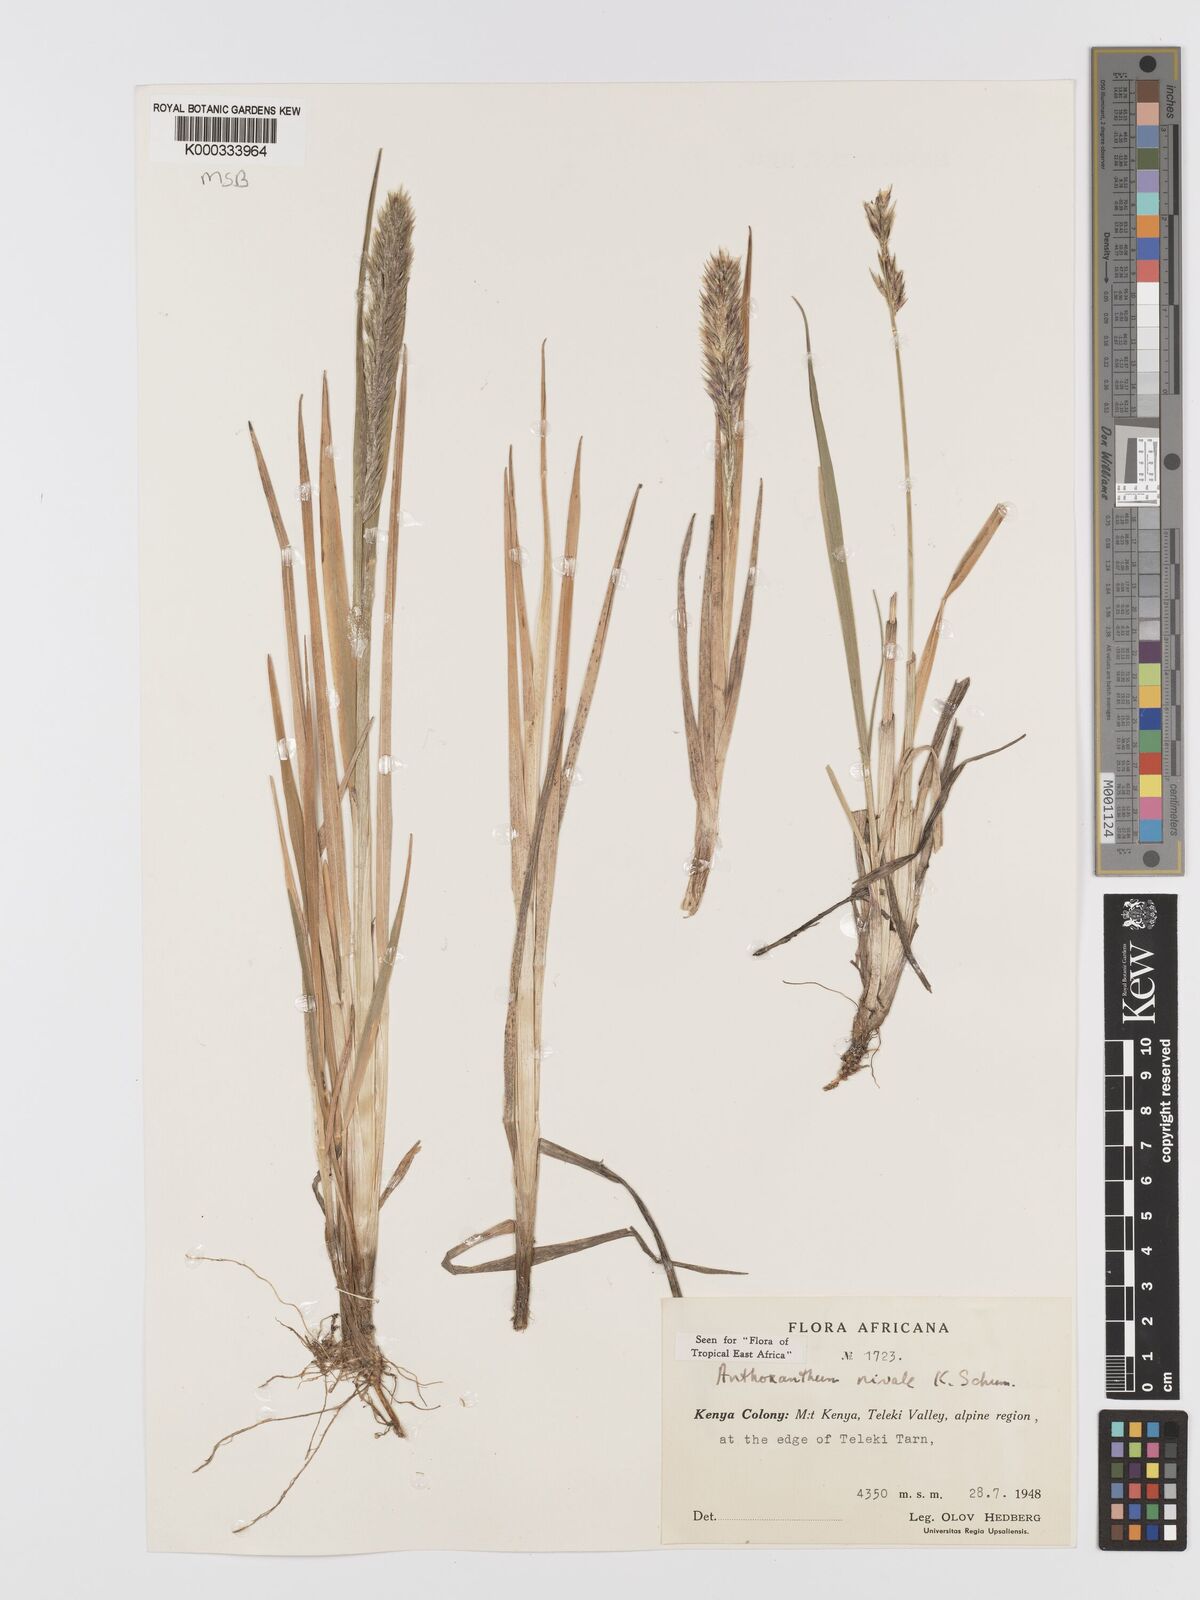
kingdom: Plantae
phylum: Tracheophyta
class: Liliopsida
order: Poales
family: Poaceae
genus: Anthoxanthum
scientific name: Anthoxanthum
